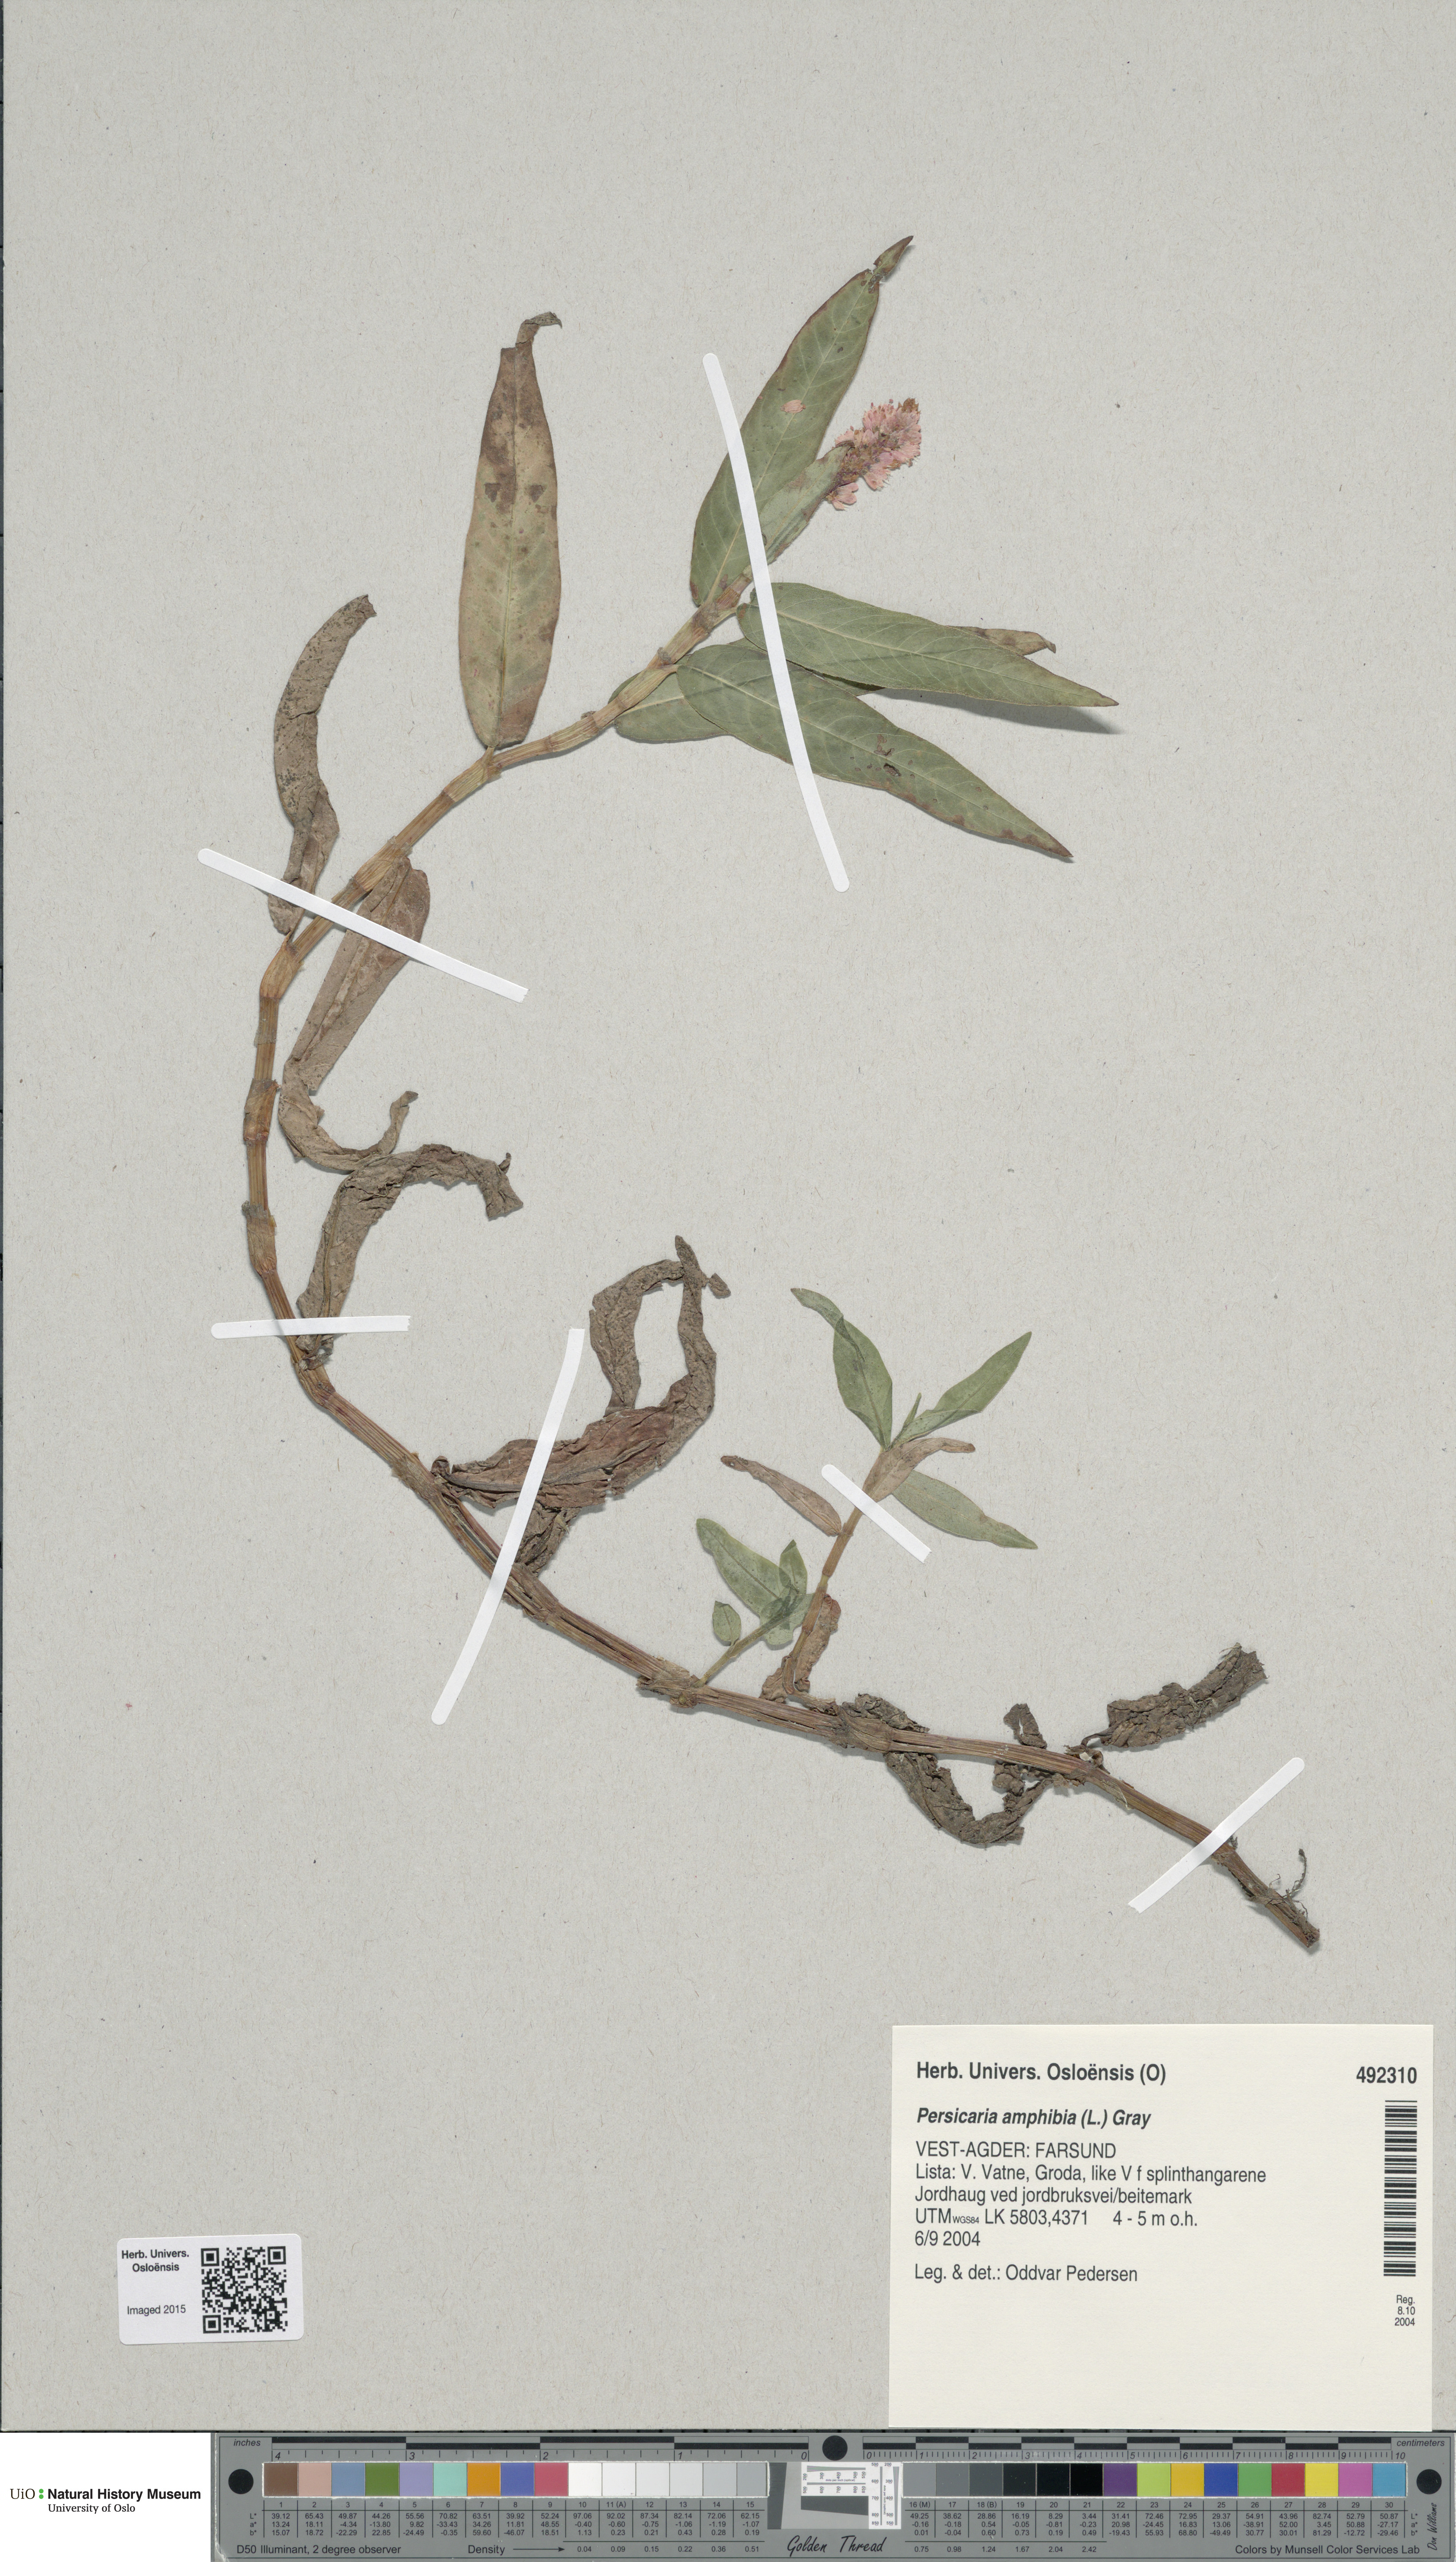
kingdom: Plantae
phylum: Tracheophyta
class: Magnoliopsida
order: Caryophyllales
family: Polygonaceae
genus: Persicaria
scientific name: Persicaria amphibia
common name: Amphibious bistort
